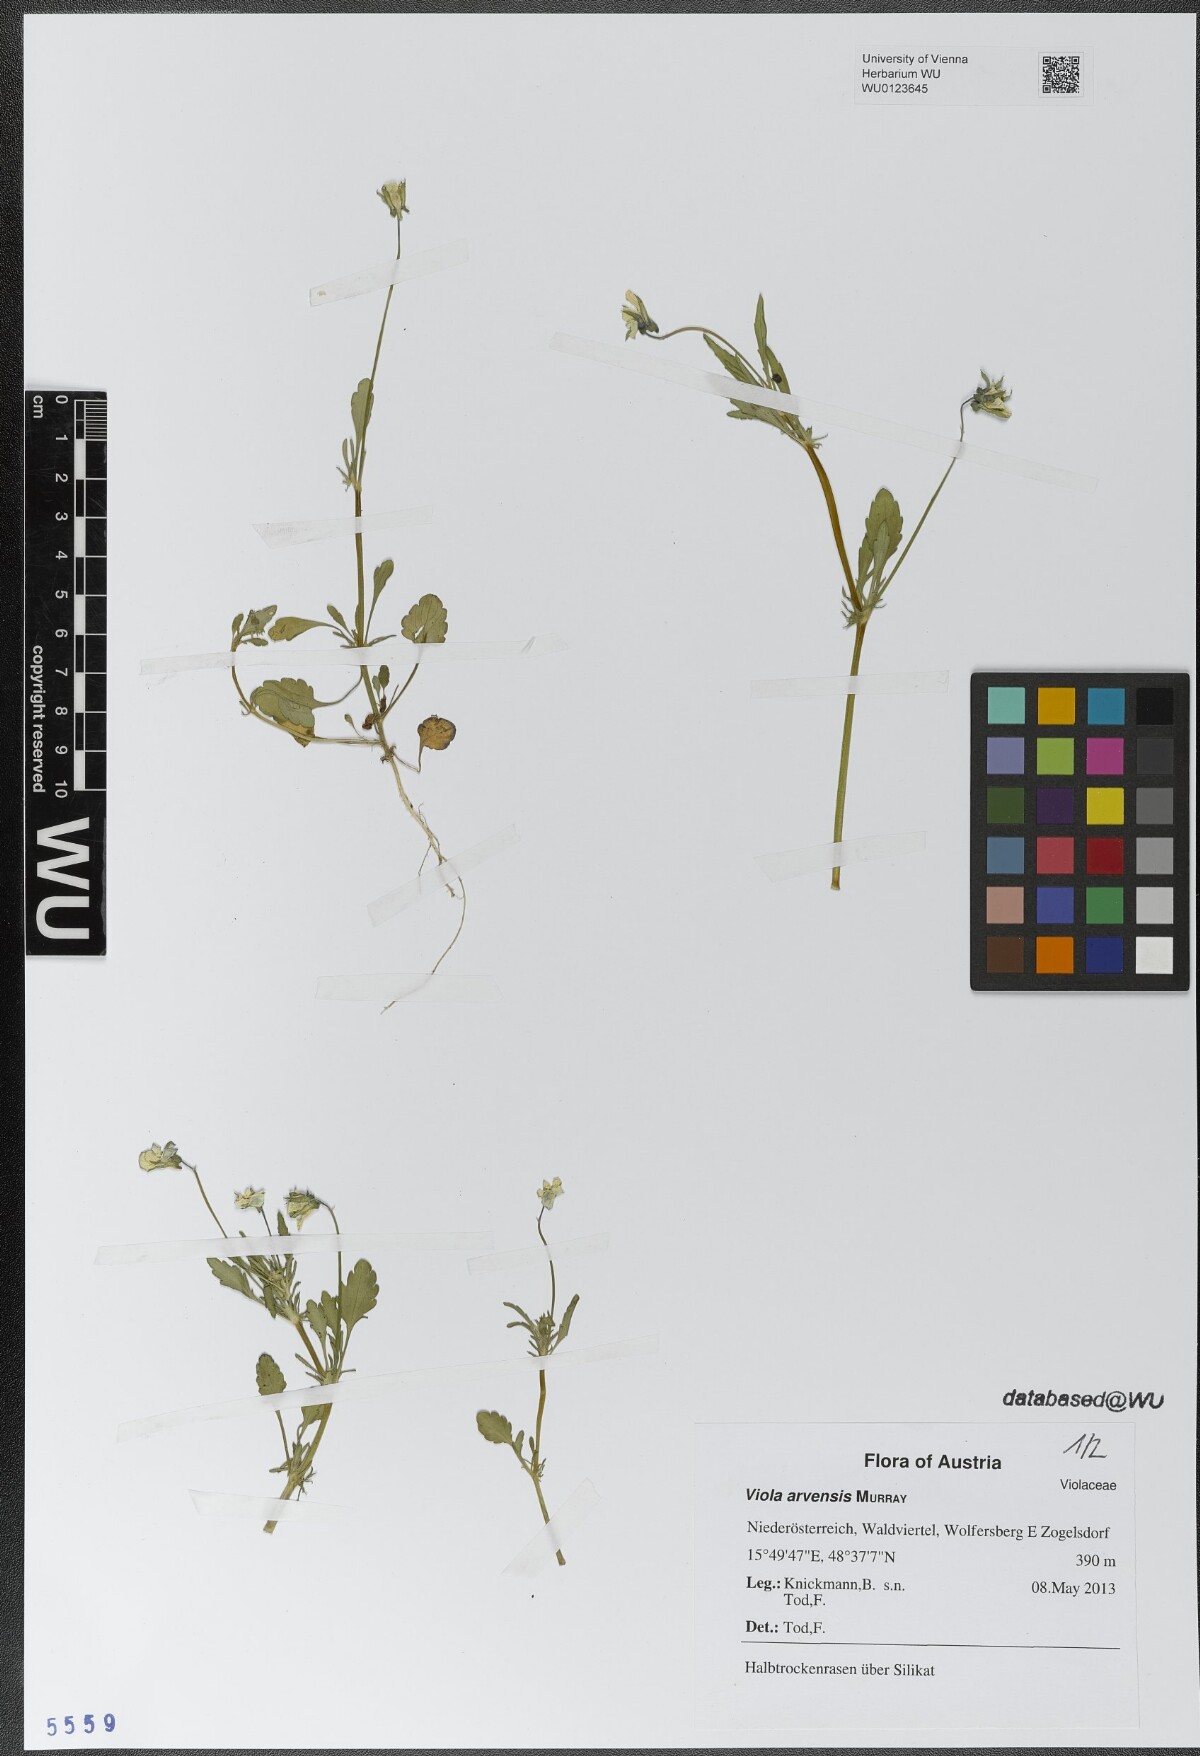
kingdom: Plantae
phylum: Tracheophyta
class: Magnoliopsida
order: Malpighiales
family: Violaceae
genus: Viola
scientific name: Viola arvensis
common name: Field pansy
